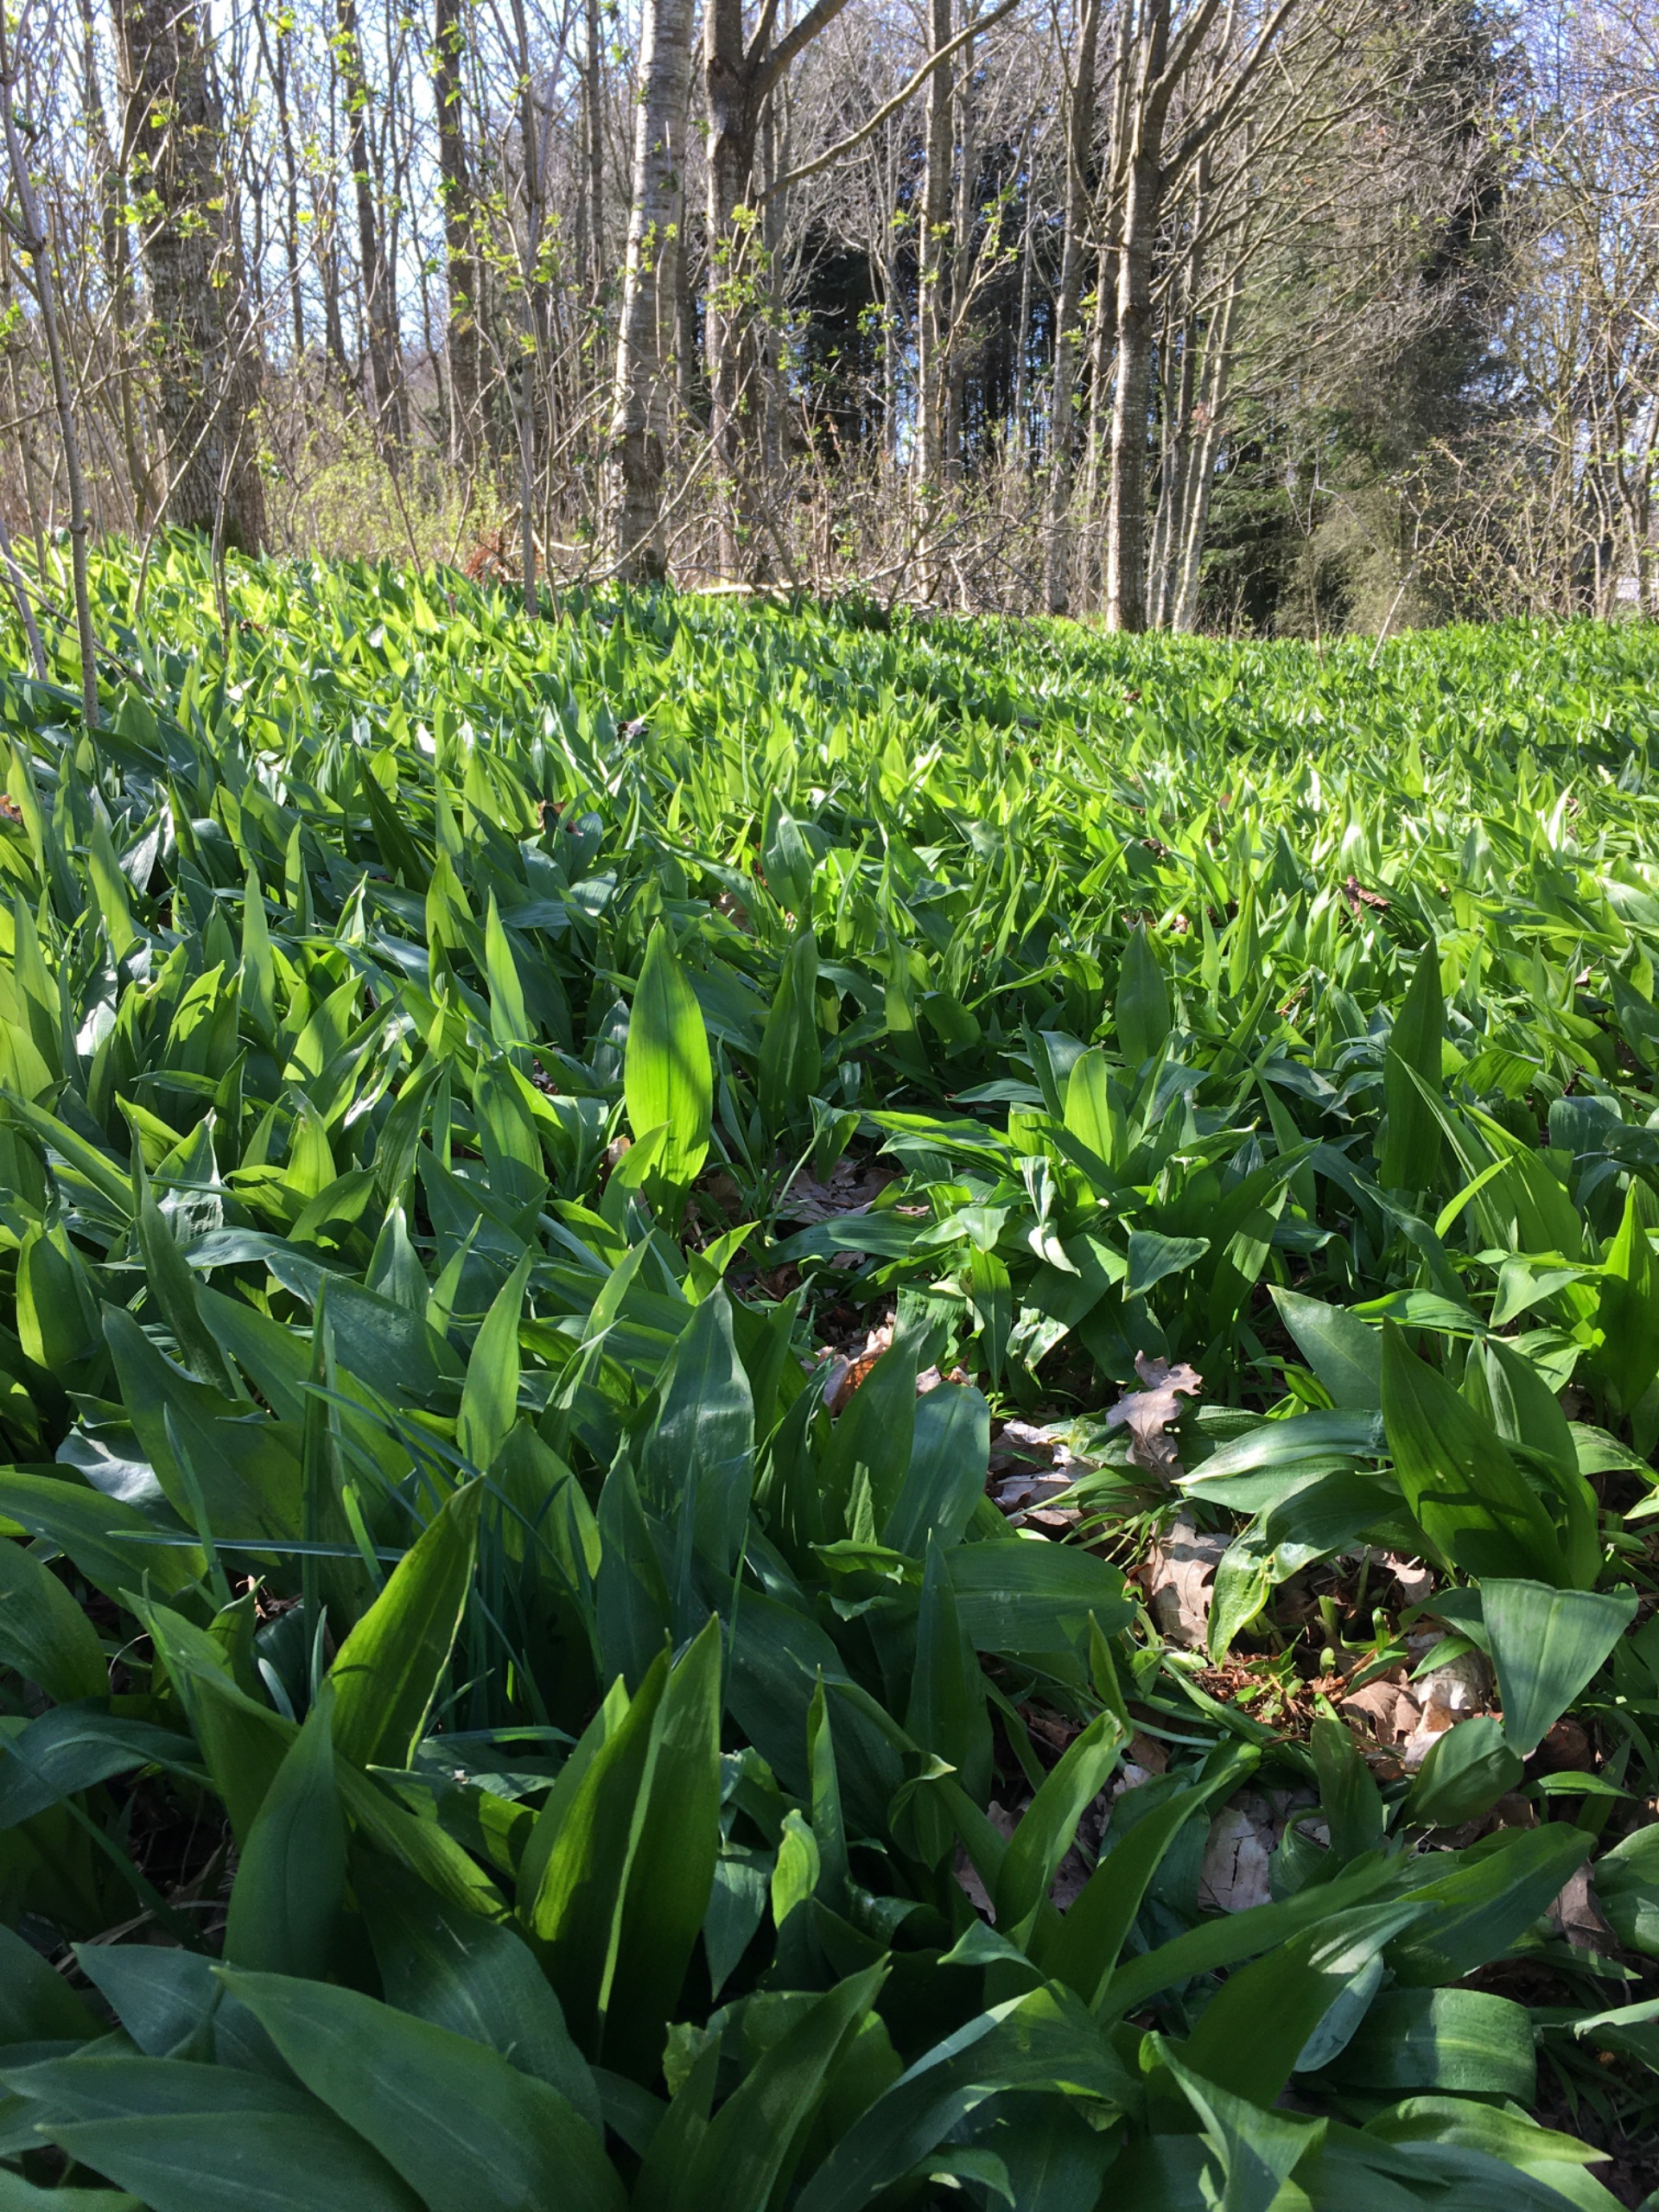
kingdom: Plantae
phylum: Tracheophyta
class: Liliopsida
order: Asparagales
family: Amaryllidaceae
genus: Allium
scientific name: Allium ursinum
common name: Rams-løg
